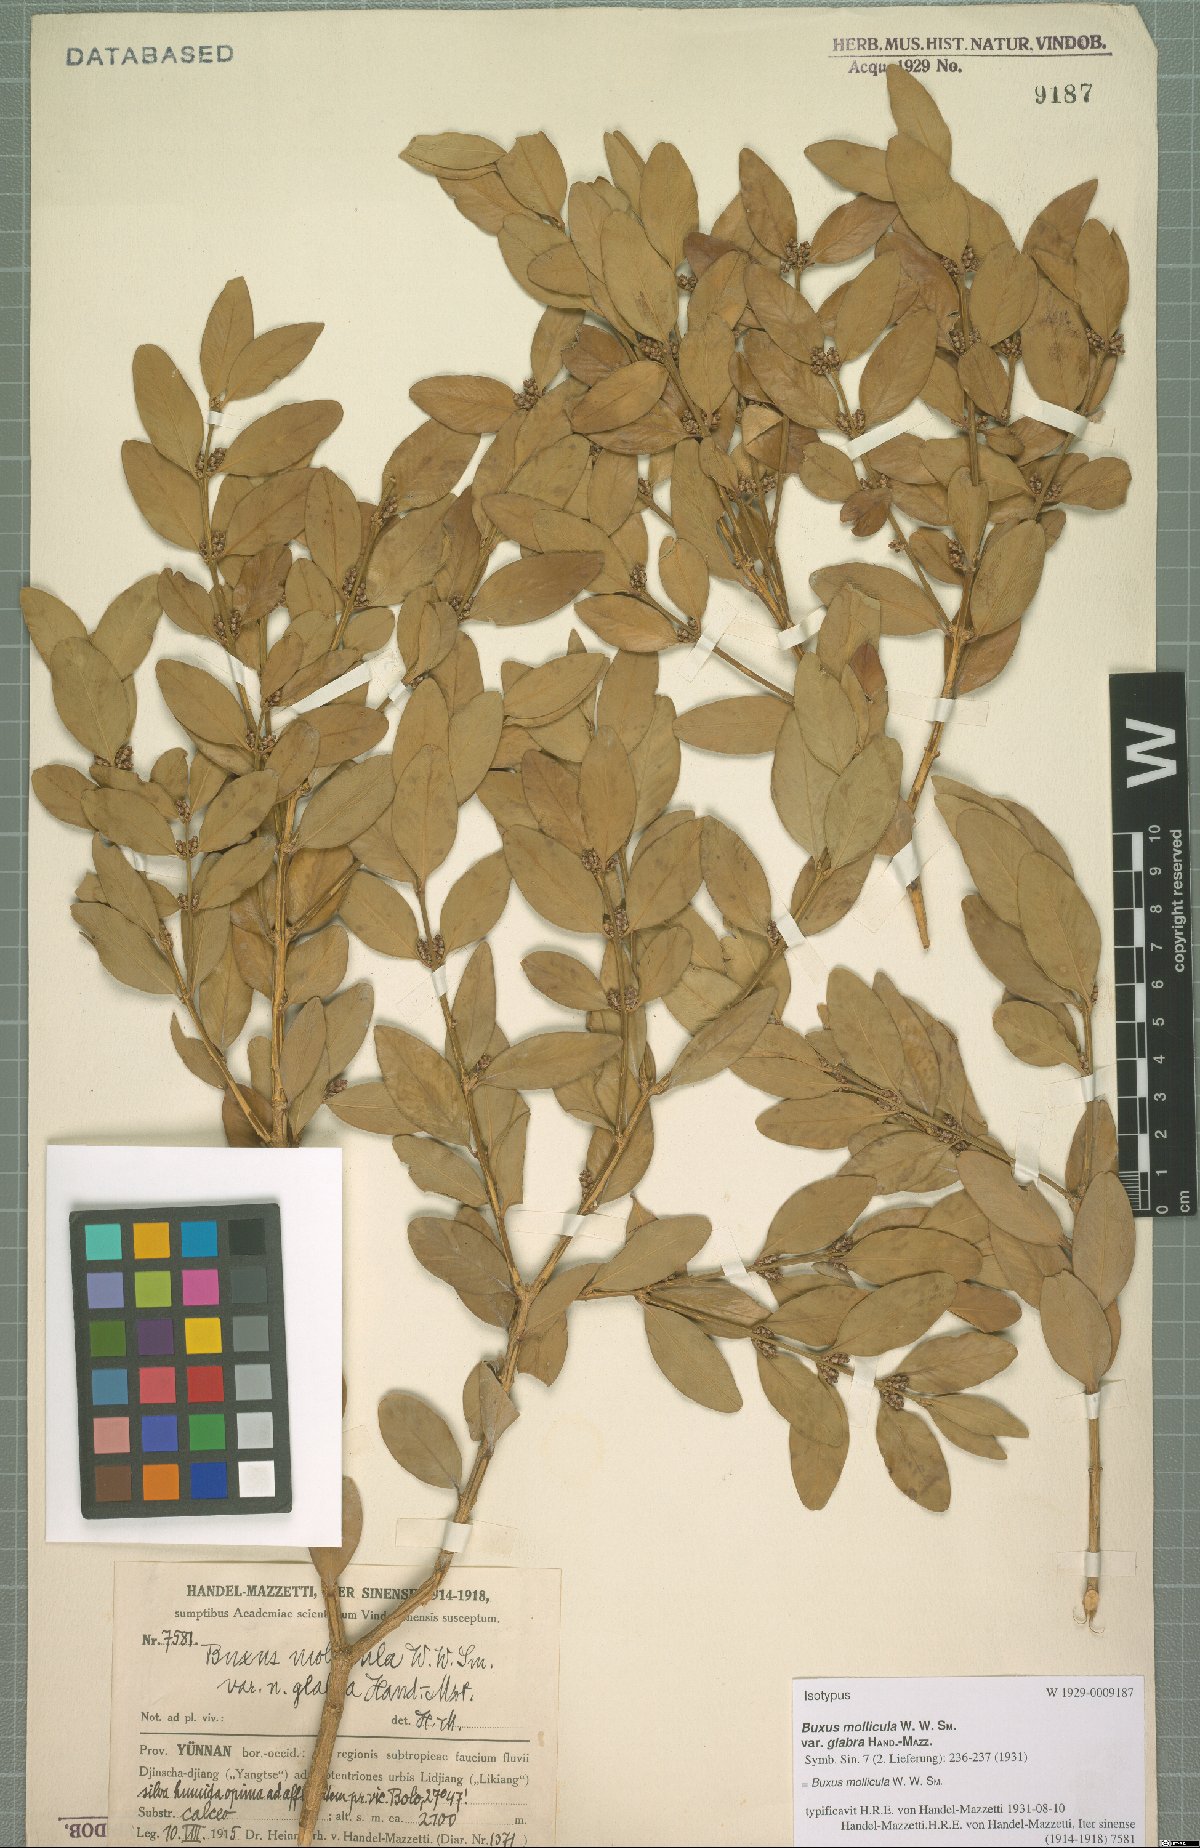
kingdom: Plantae
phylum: Tracheophyta
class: Magnoliopsida
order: Buxales
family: Buxaceae
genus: Buxus
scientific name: Buxus mollicula
